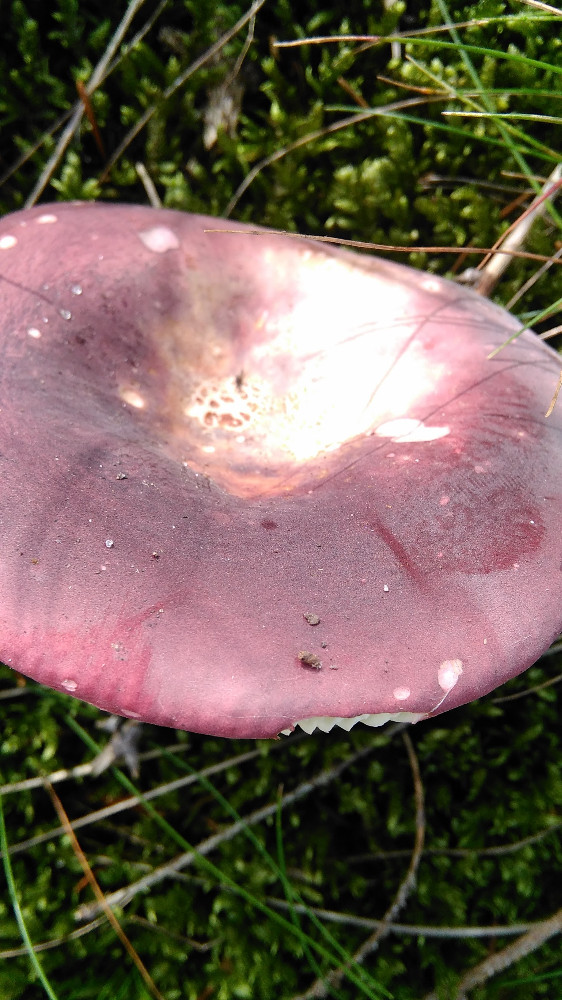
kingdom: Fungi
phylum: Basidiomycota
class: Agaricomycetes
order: Russulales
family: Russulaceae
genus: Russula
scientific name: Russula xerampelina
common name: hummer-skørhat
